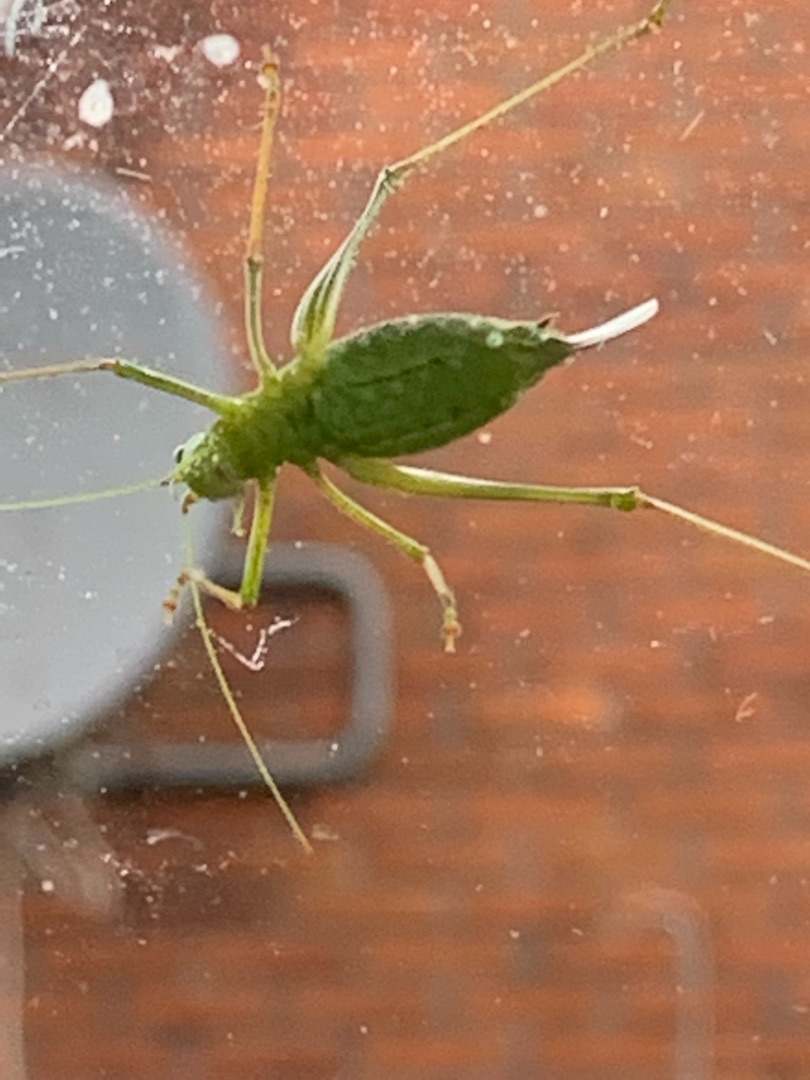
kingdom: Animalia
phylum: Arthropoda
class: Insecta
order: Orthoptera
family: Tettigoniidae
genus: Leptophyes
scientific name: Leptophyes punctatissima
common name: Krumknivgræshoppe
